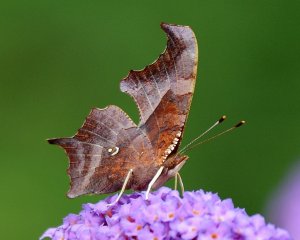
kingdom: Animalia
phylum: Arthropoda
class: Insecta
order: Lepidoptera
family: Nymphalidae
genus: Polygonia
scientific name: Polygonia interrogationis
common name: Question Mark
